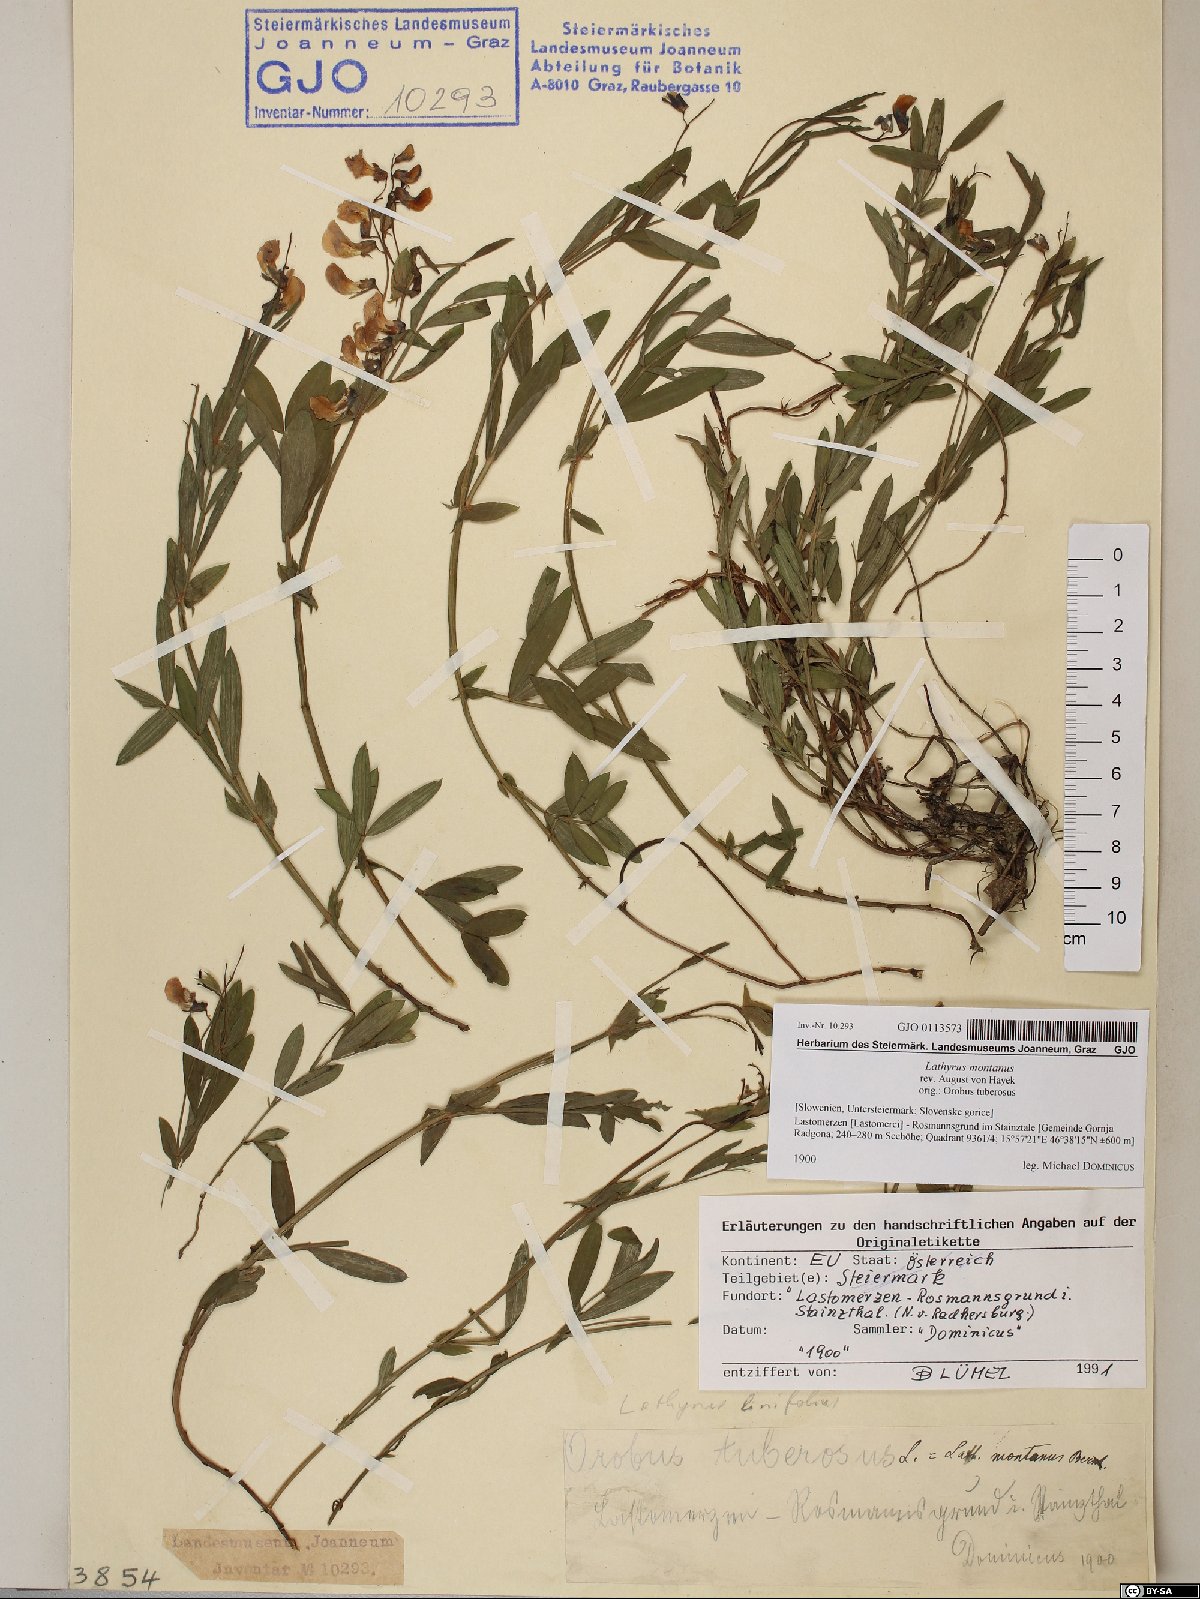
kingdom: Plantae
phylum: Tracheophyta
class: Magnoliopsida
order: Fabales
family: Fabaceae
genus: Lathyrus
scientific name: Lathyrus linifolius
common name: Bitter-vetch
